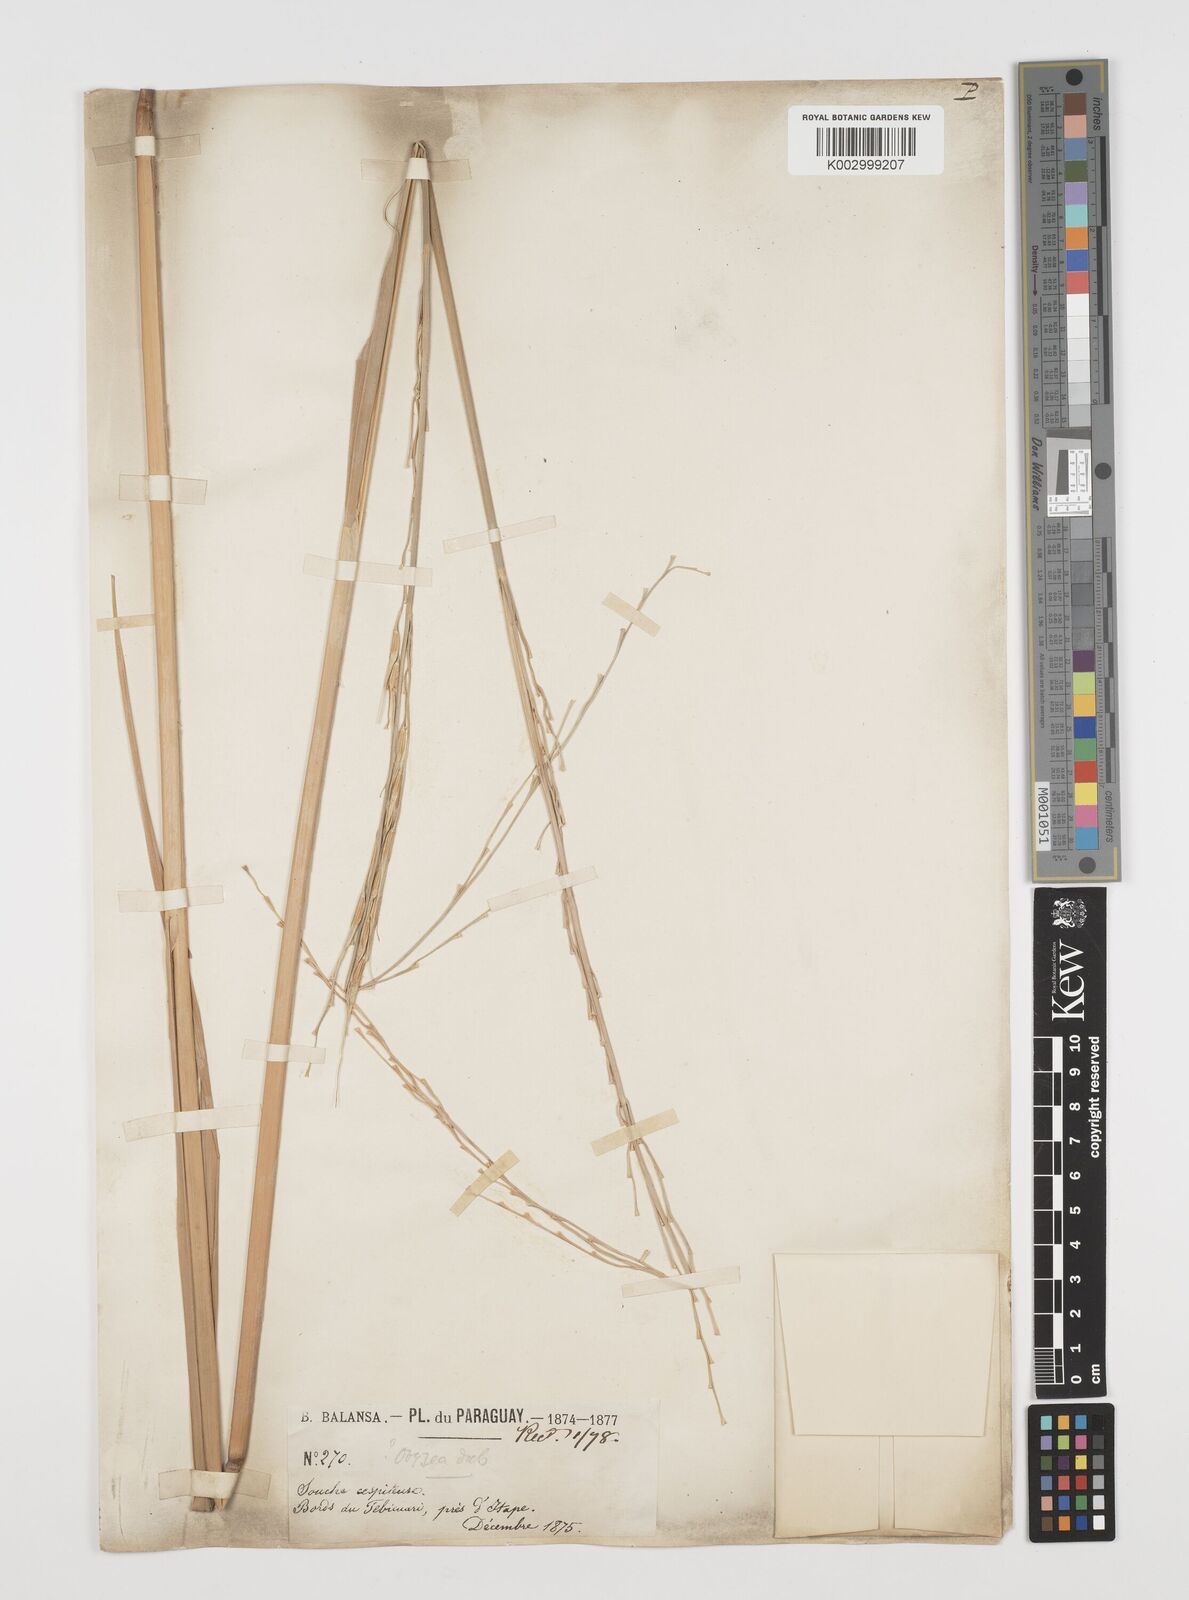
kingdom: Plantae
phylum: Tracheophyta
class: Liliopsida
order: Poales
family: Poaceae
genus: Rhynchoryza
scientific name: Rhynchoryza subulata
